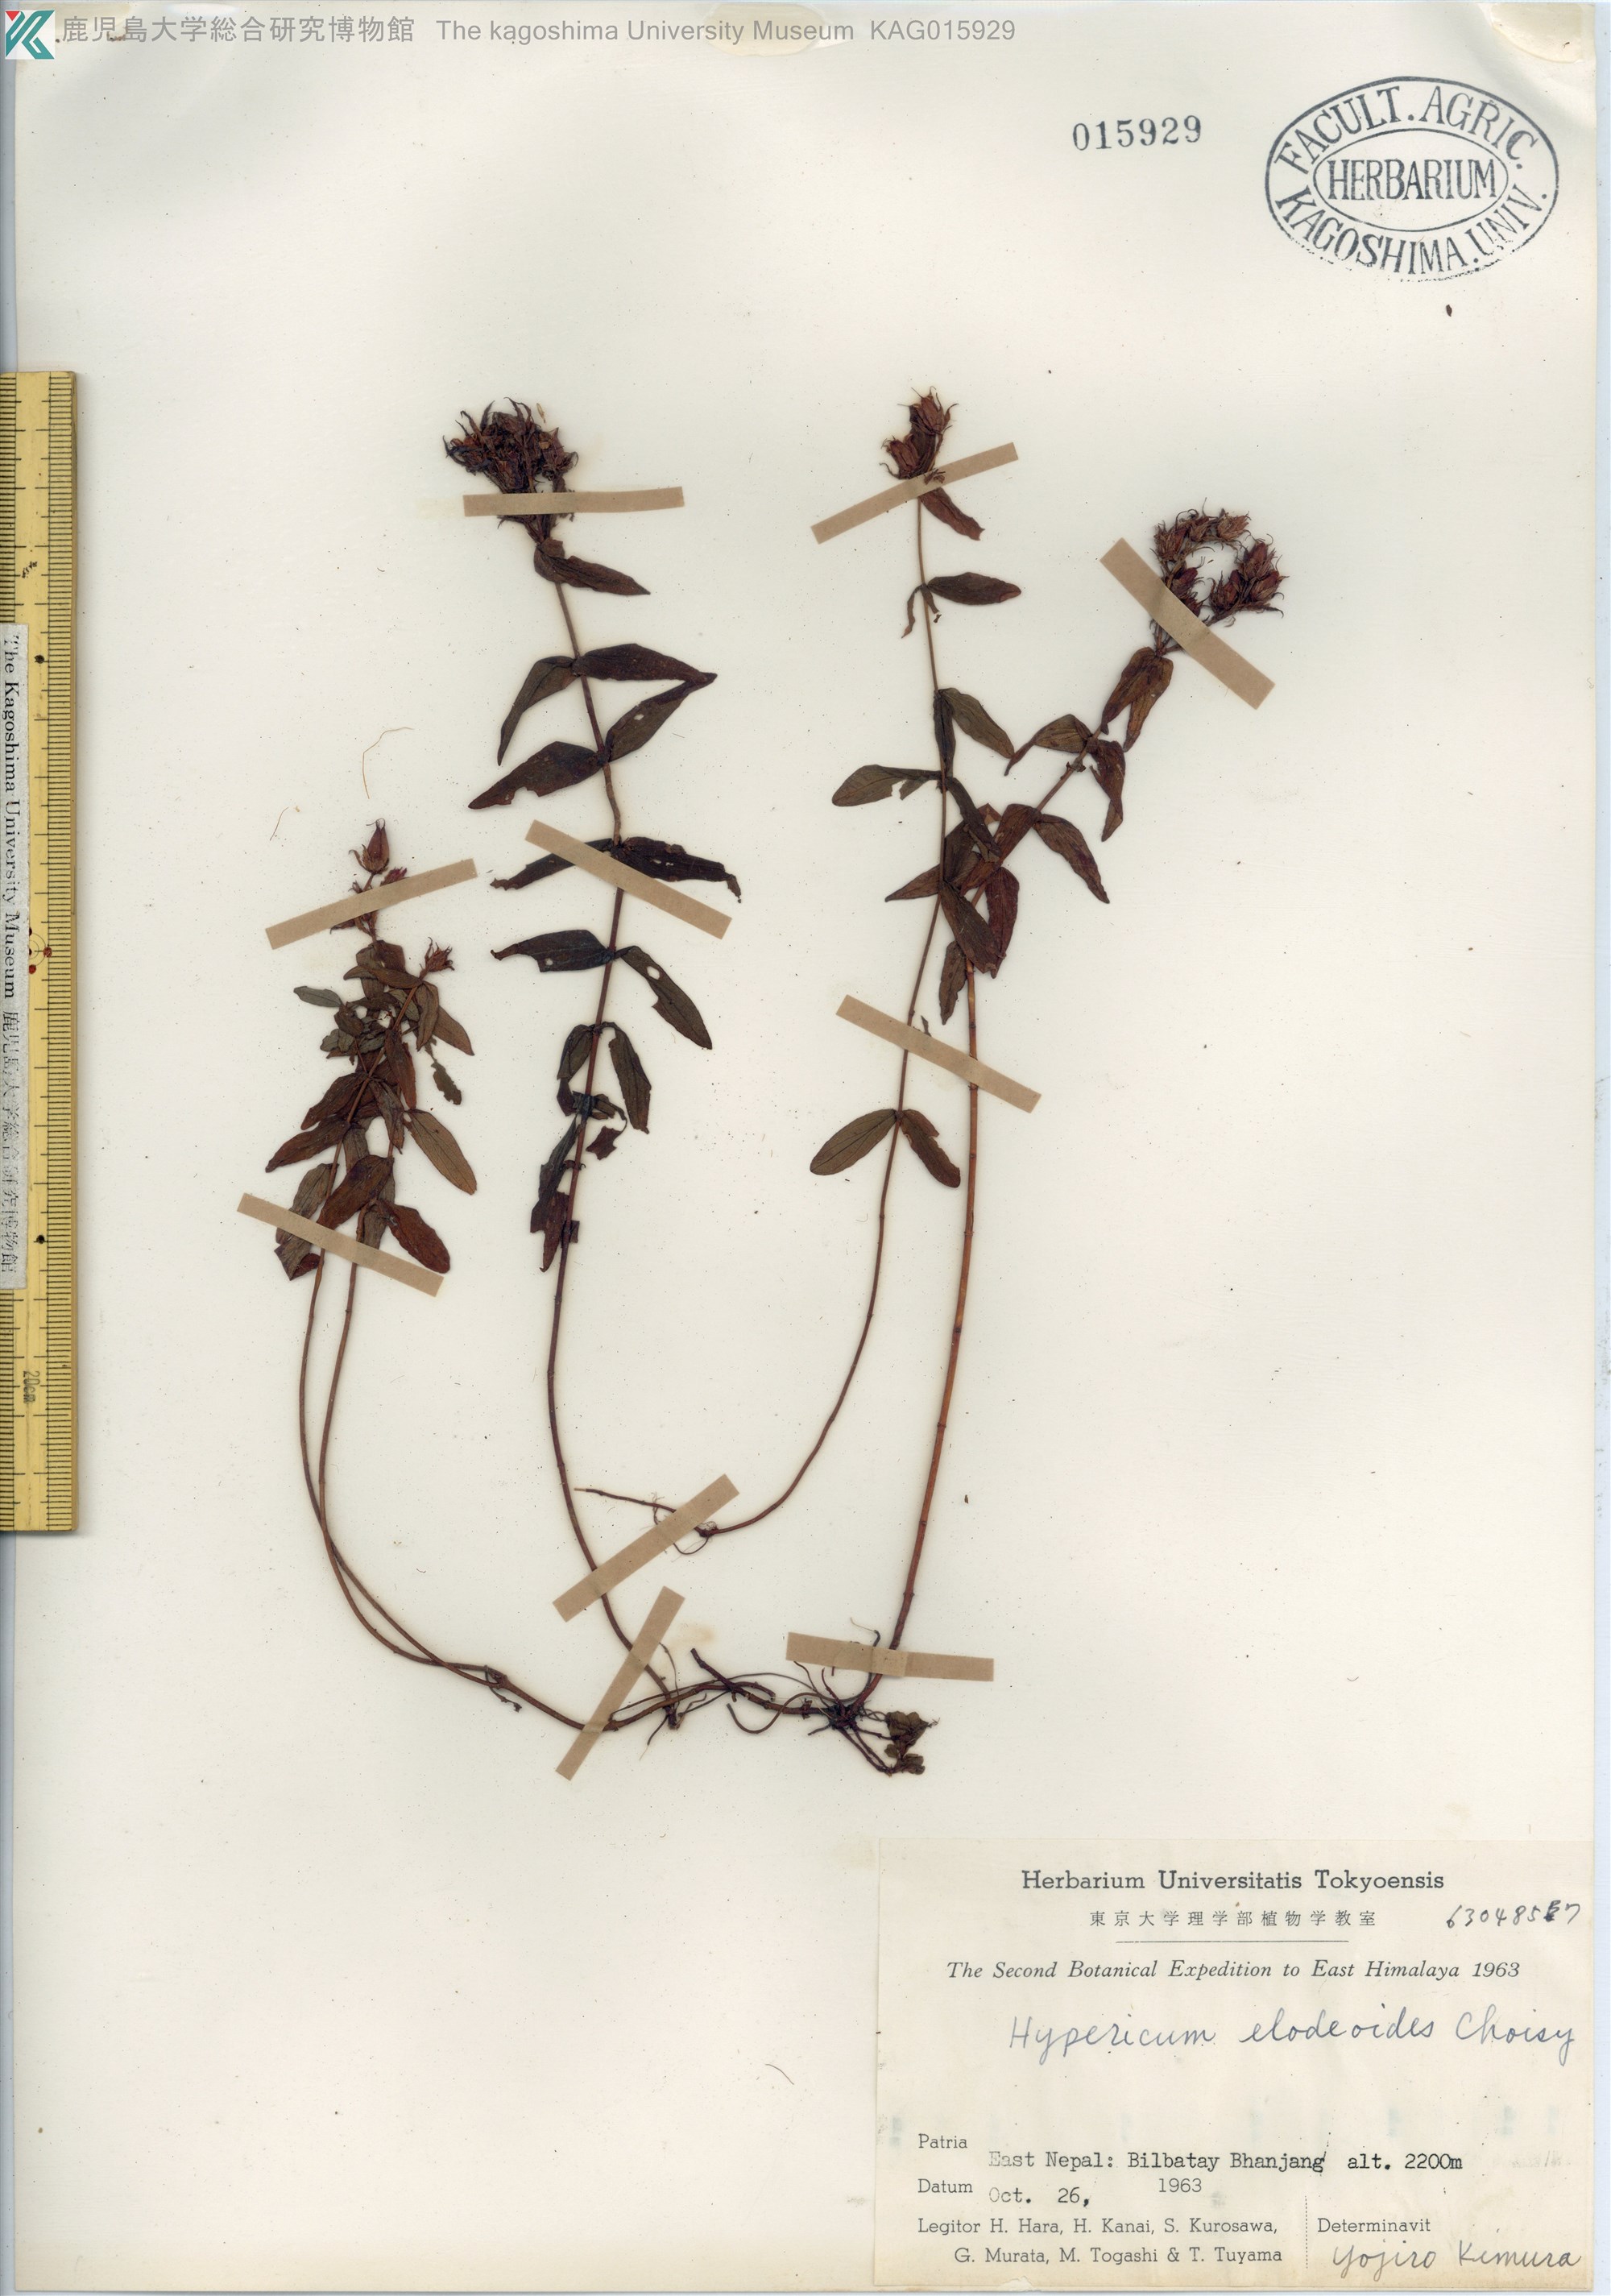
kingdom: Plantae
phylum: Tracheophyta
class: Magnoliopsida
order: Malpighiales
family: Hypericaceae
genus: Hypericum
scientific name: Hypericum elodeoides
